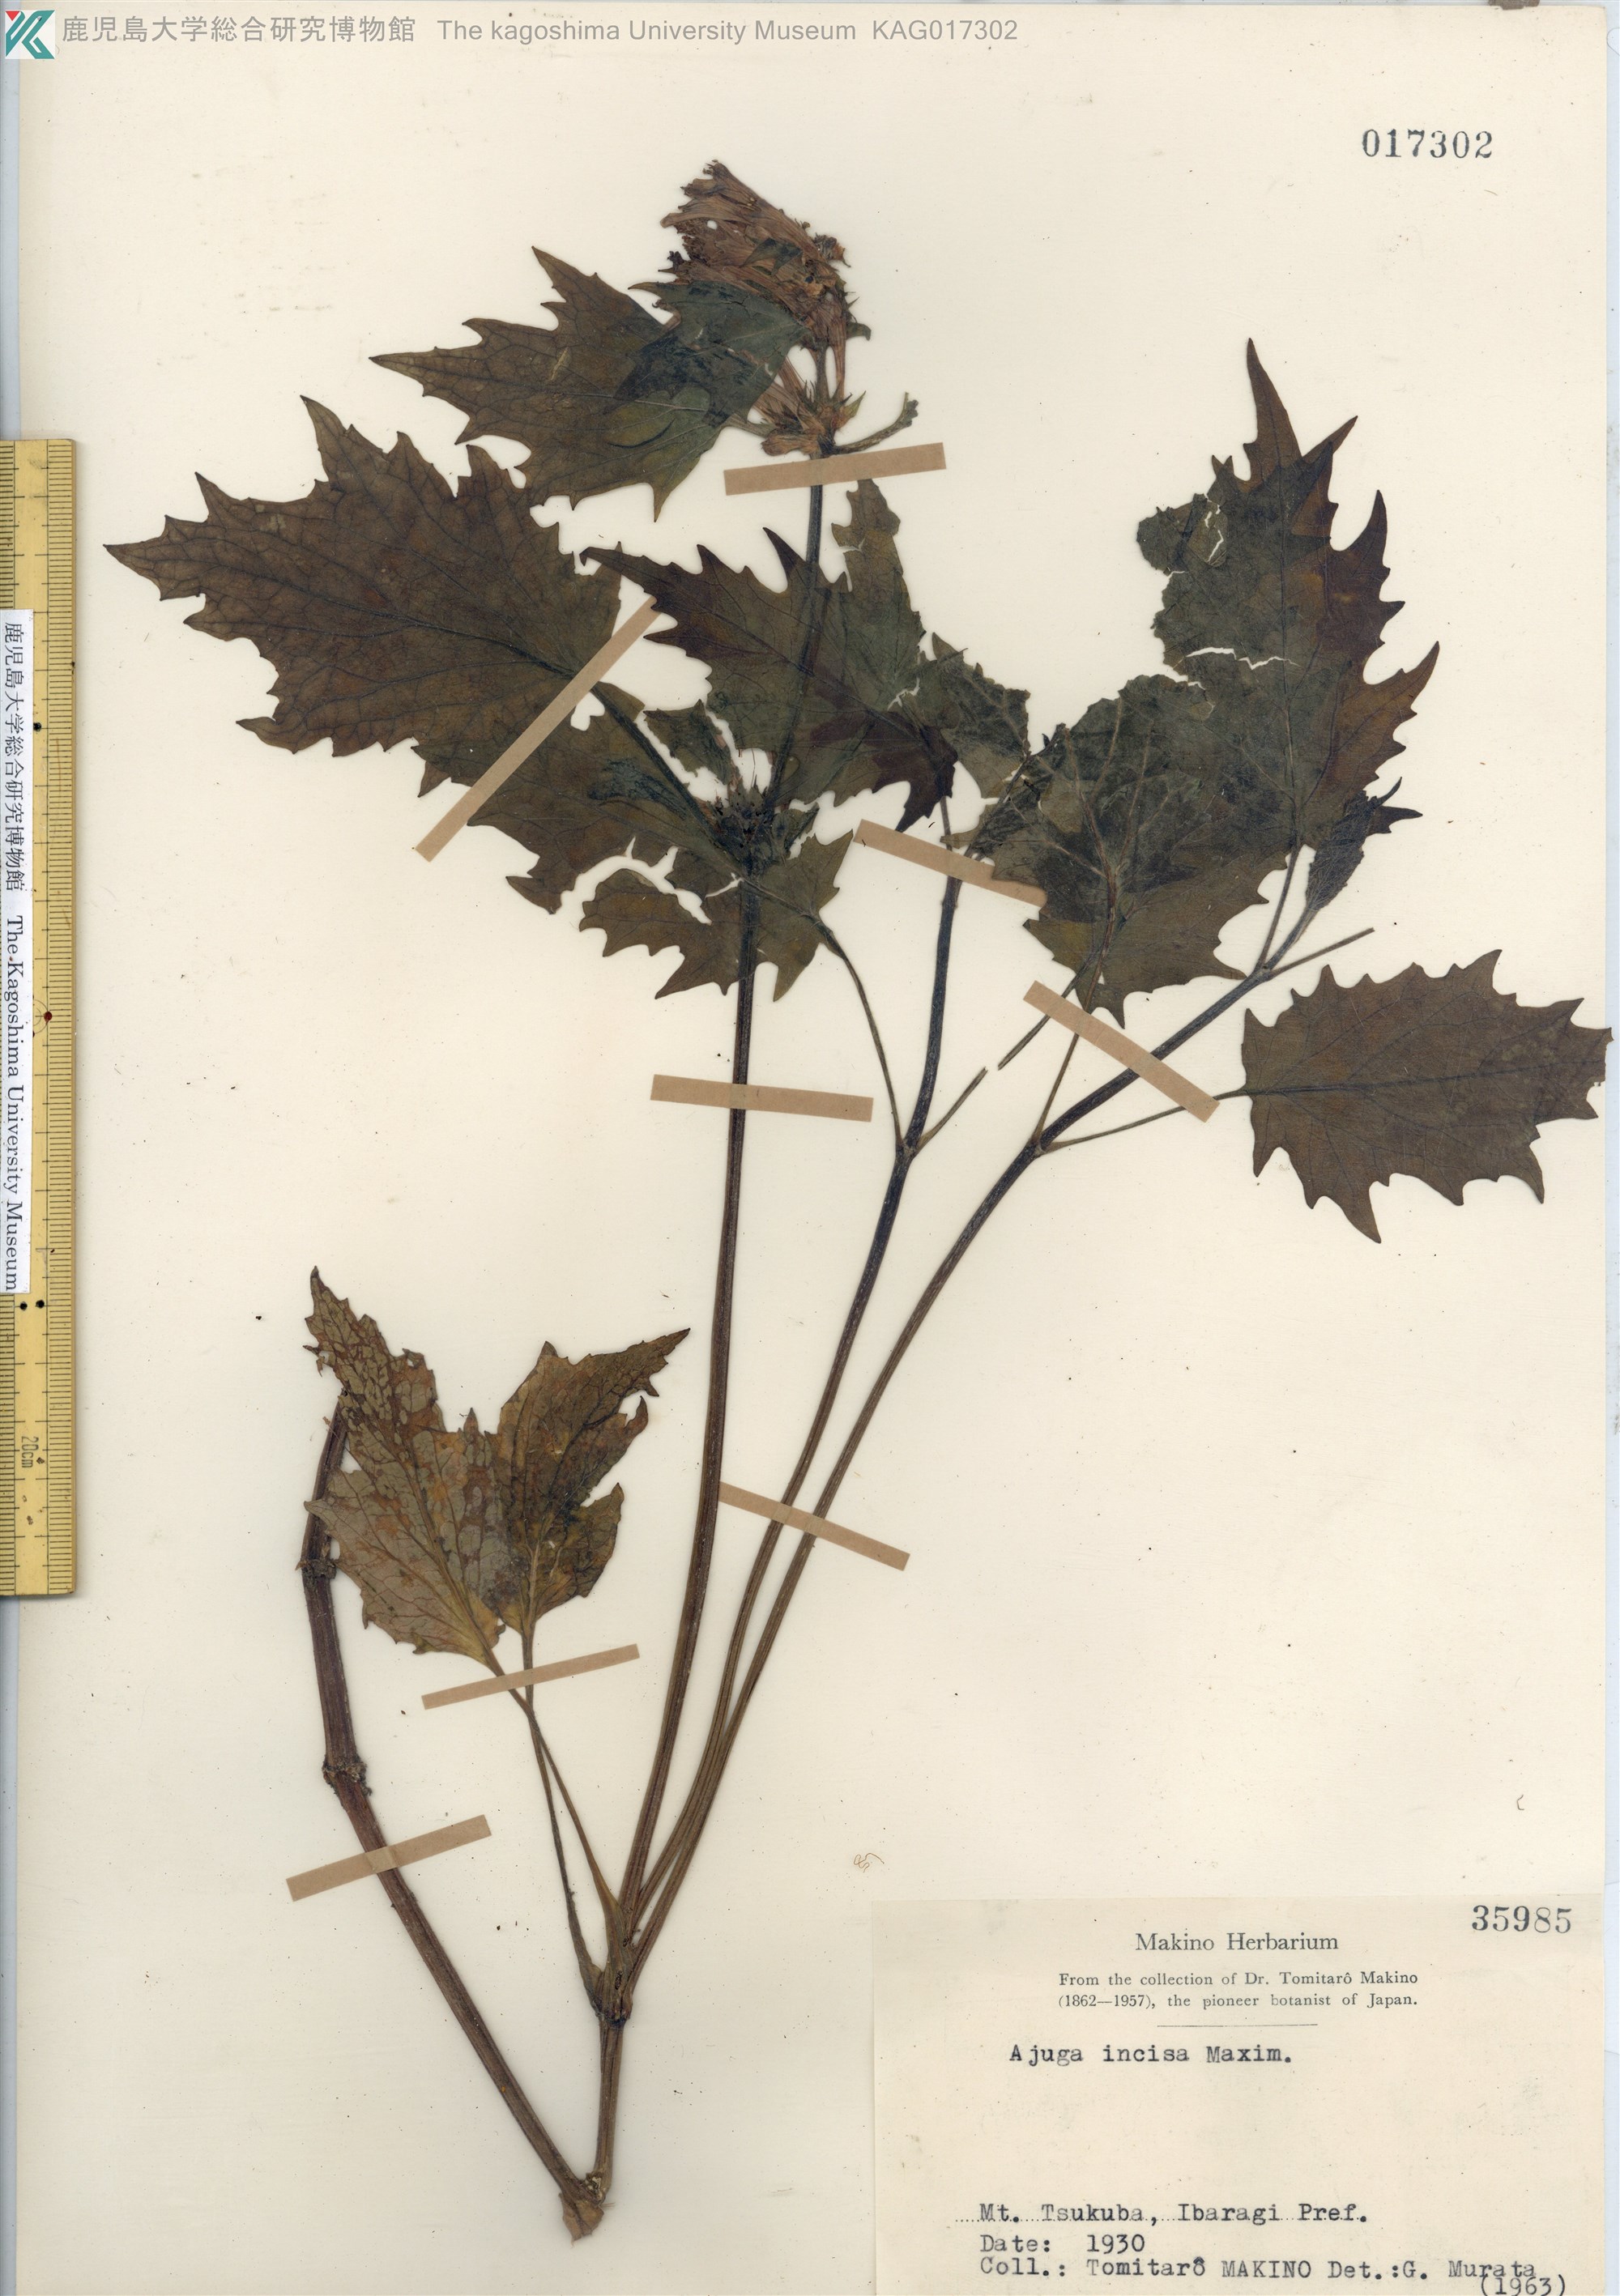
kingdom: Plantae
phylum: Tracheophyta
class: Magnoliopsida
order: Lamiales
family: Lamiaceae
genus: Ajuga
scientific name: Ajuga incisa
